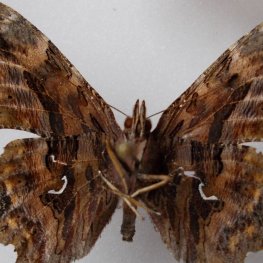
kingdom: Animalia
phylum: Arthropoda
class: Insecta
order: Lepidoptera
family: Nymphalidae
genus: Polygonia
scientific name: Polygonia faunus
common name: Green Comma
